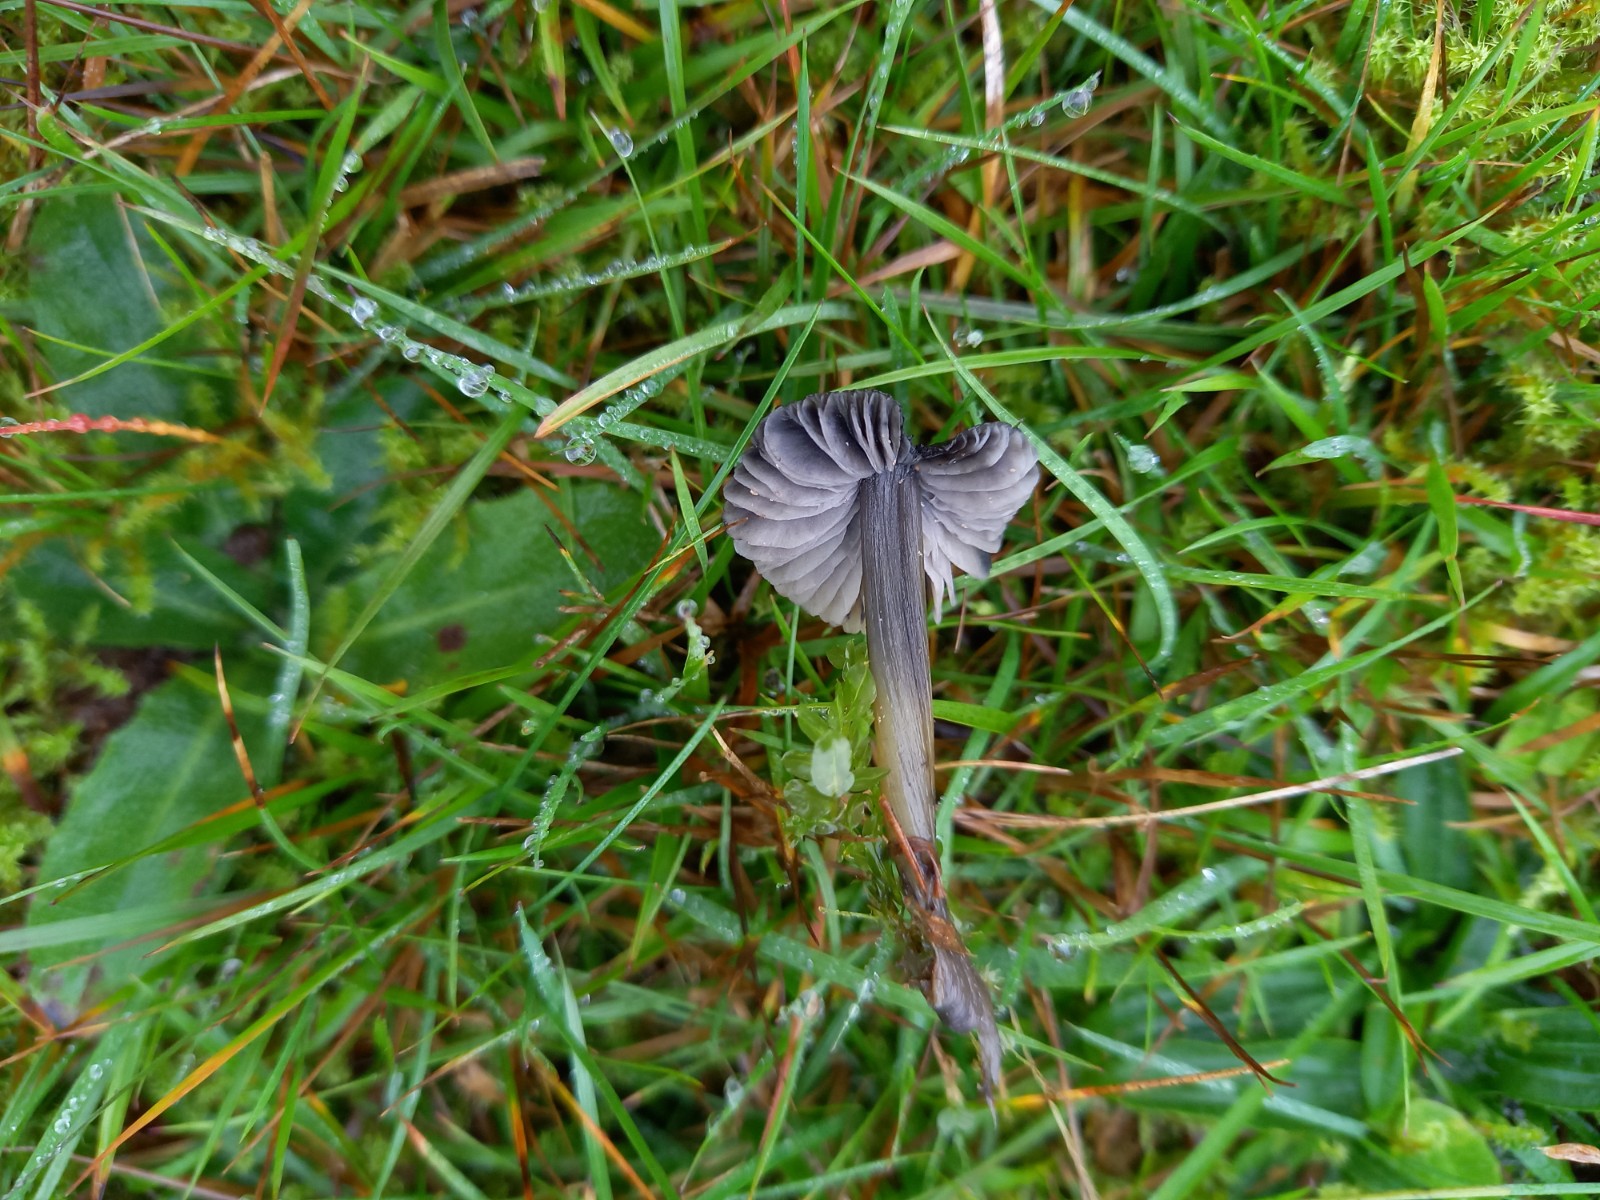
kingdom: Fungi
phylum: Basidiomycota
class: Agaricomycetes
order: Agaricales
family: Hygrophoraceae
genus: Hygrocybe
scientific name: Hygrocybe conica
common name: kegle-vokshat
